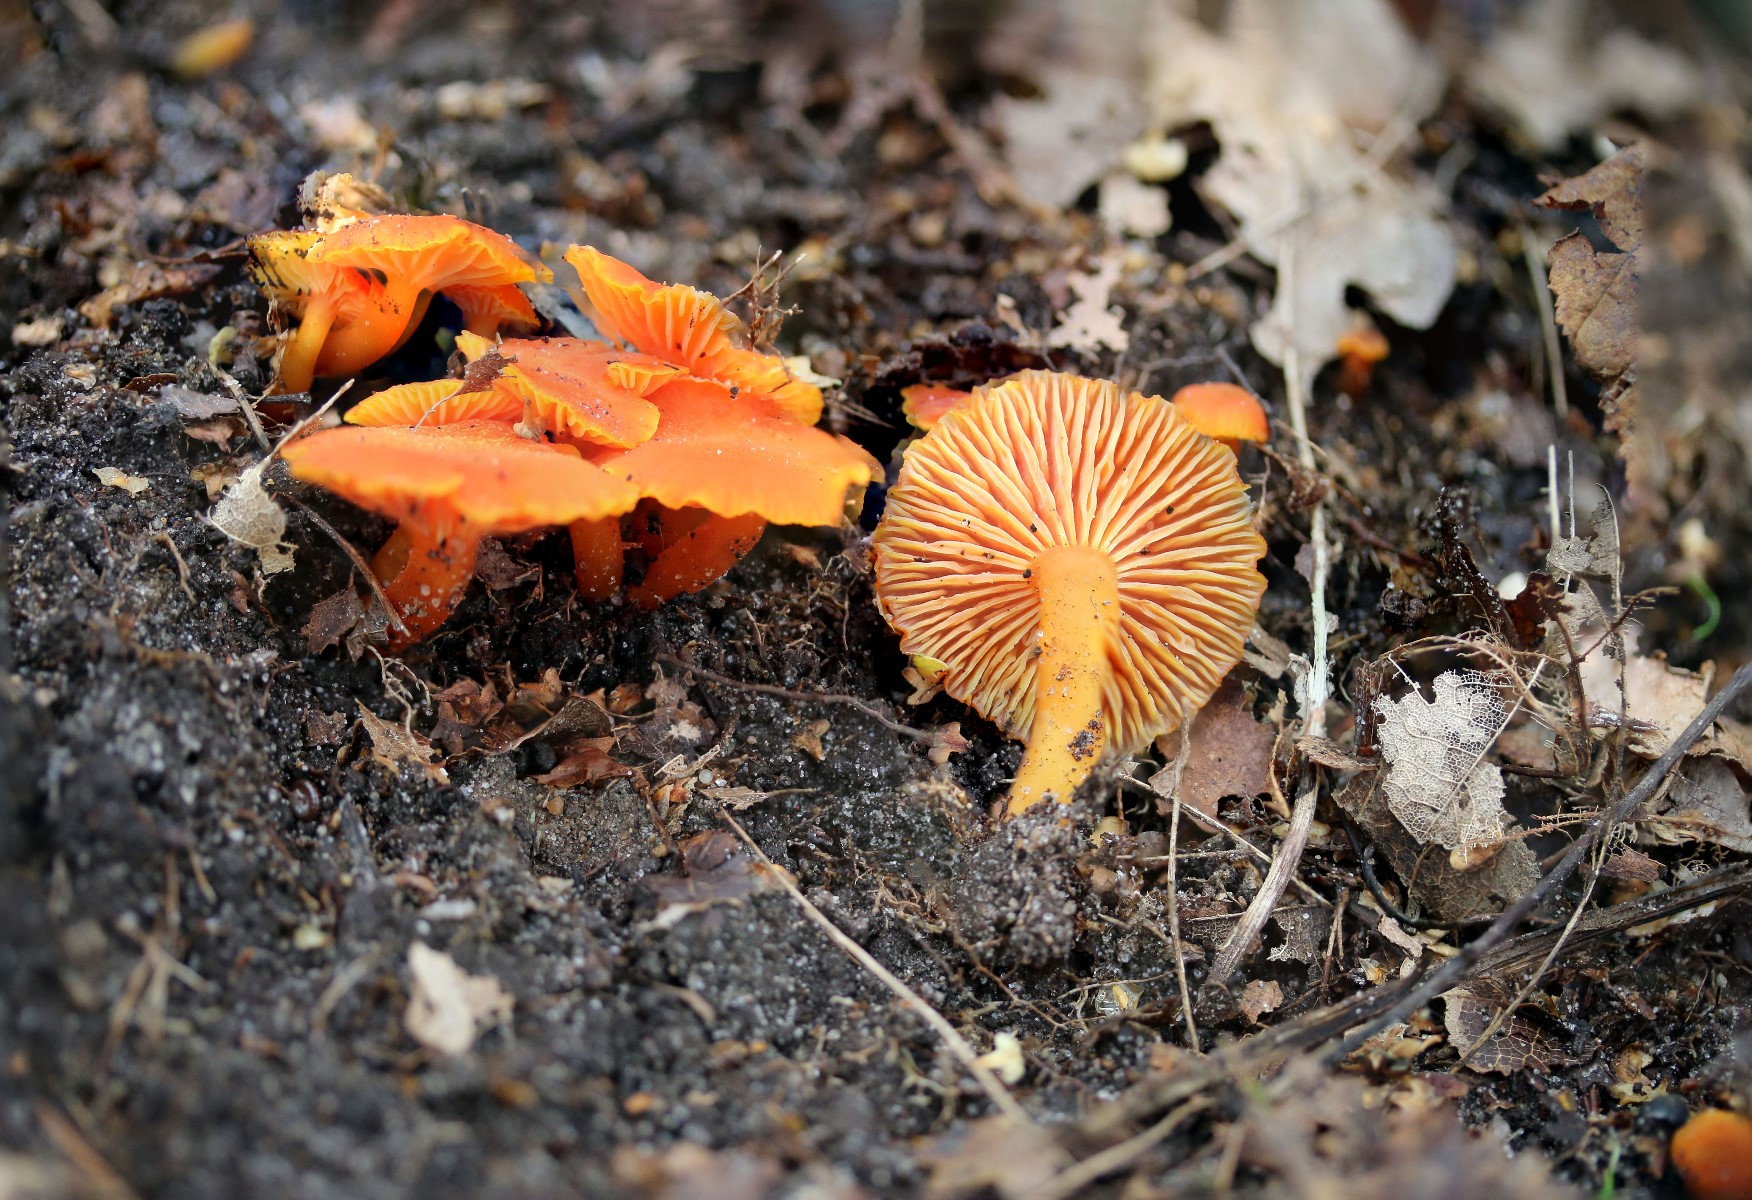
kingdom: Fungi
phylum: Basidiomycota
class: Agaricomycetes
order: Agaricales
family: Hygrophoraceae
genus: Hygrocybe
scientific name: Hygrocybe miniata
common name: mønje-vokshat
